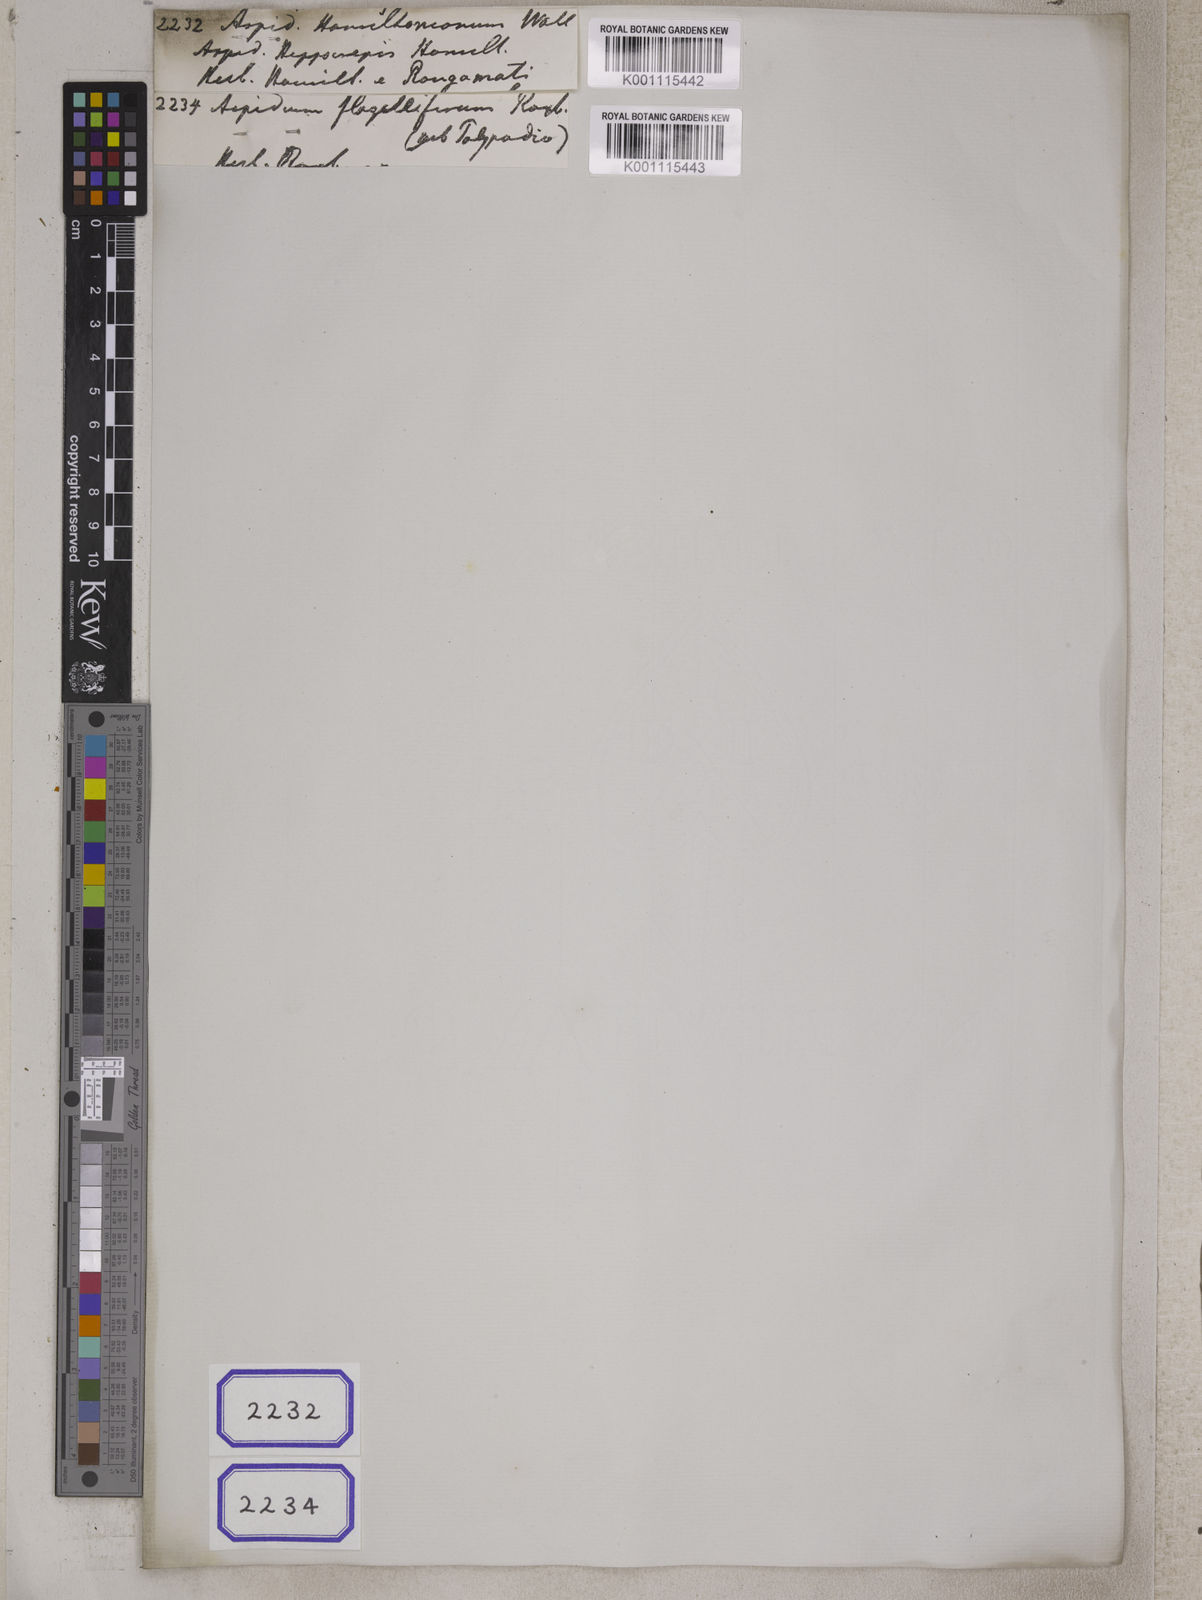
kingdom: Plantae
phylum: Tracheophyta
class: Polypodiopsida
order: Polypodiales
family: Tectariaceae
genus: Tectaria
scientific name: Tectaria Aspidium spec
